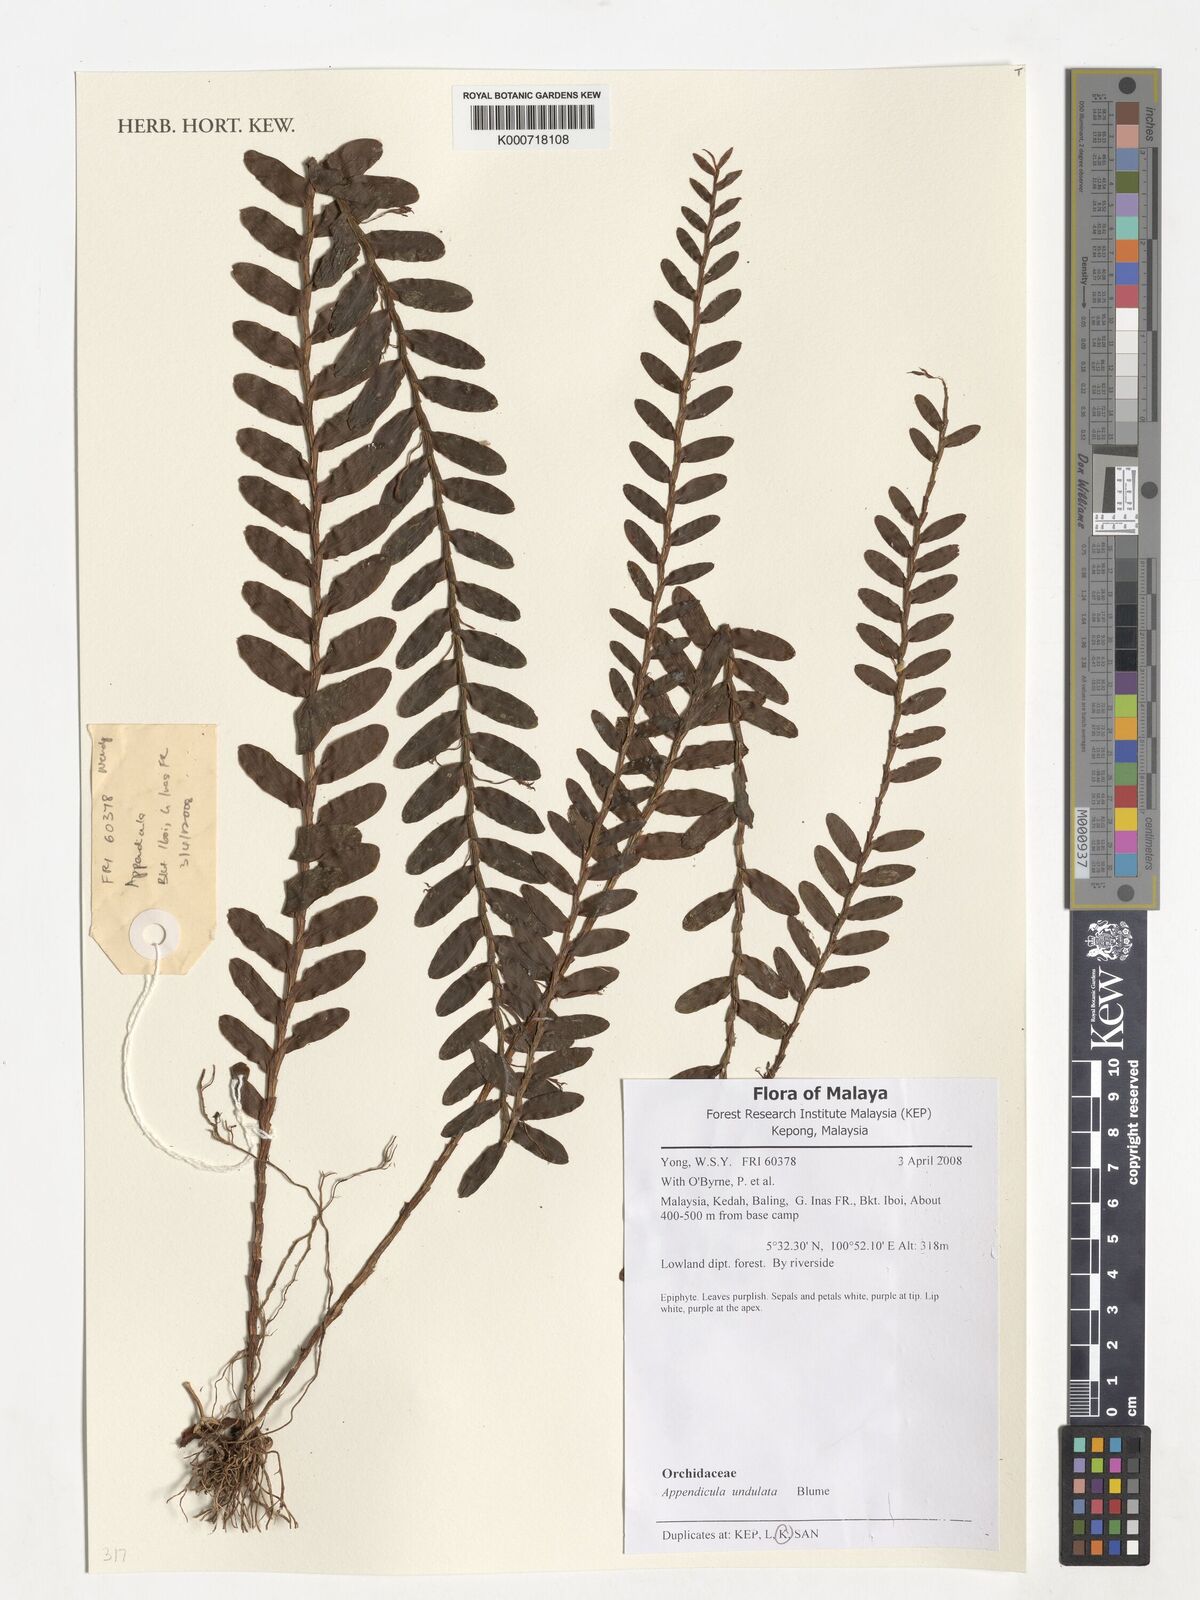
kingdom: Plantae
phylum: Tracheophyta
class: Liliopsida
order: Asparagales
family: Orchidaceae
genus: Appendicula
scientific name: Appendicula undulata
